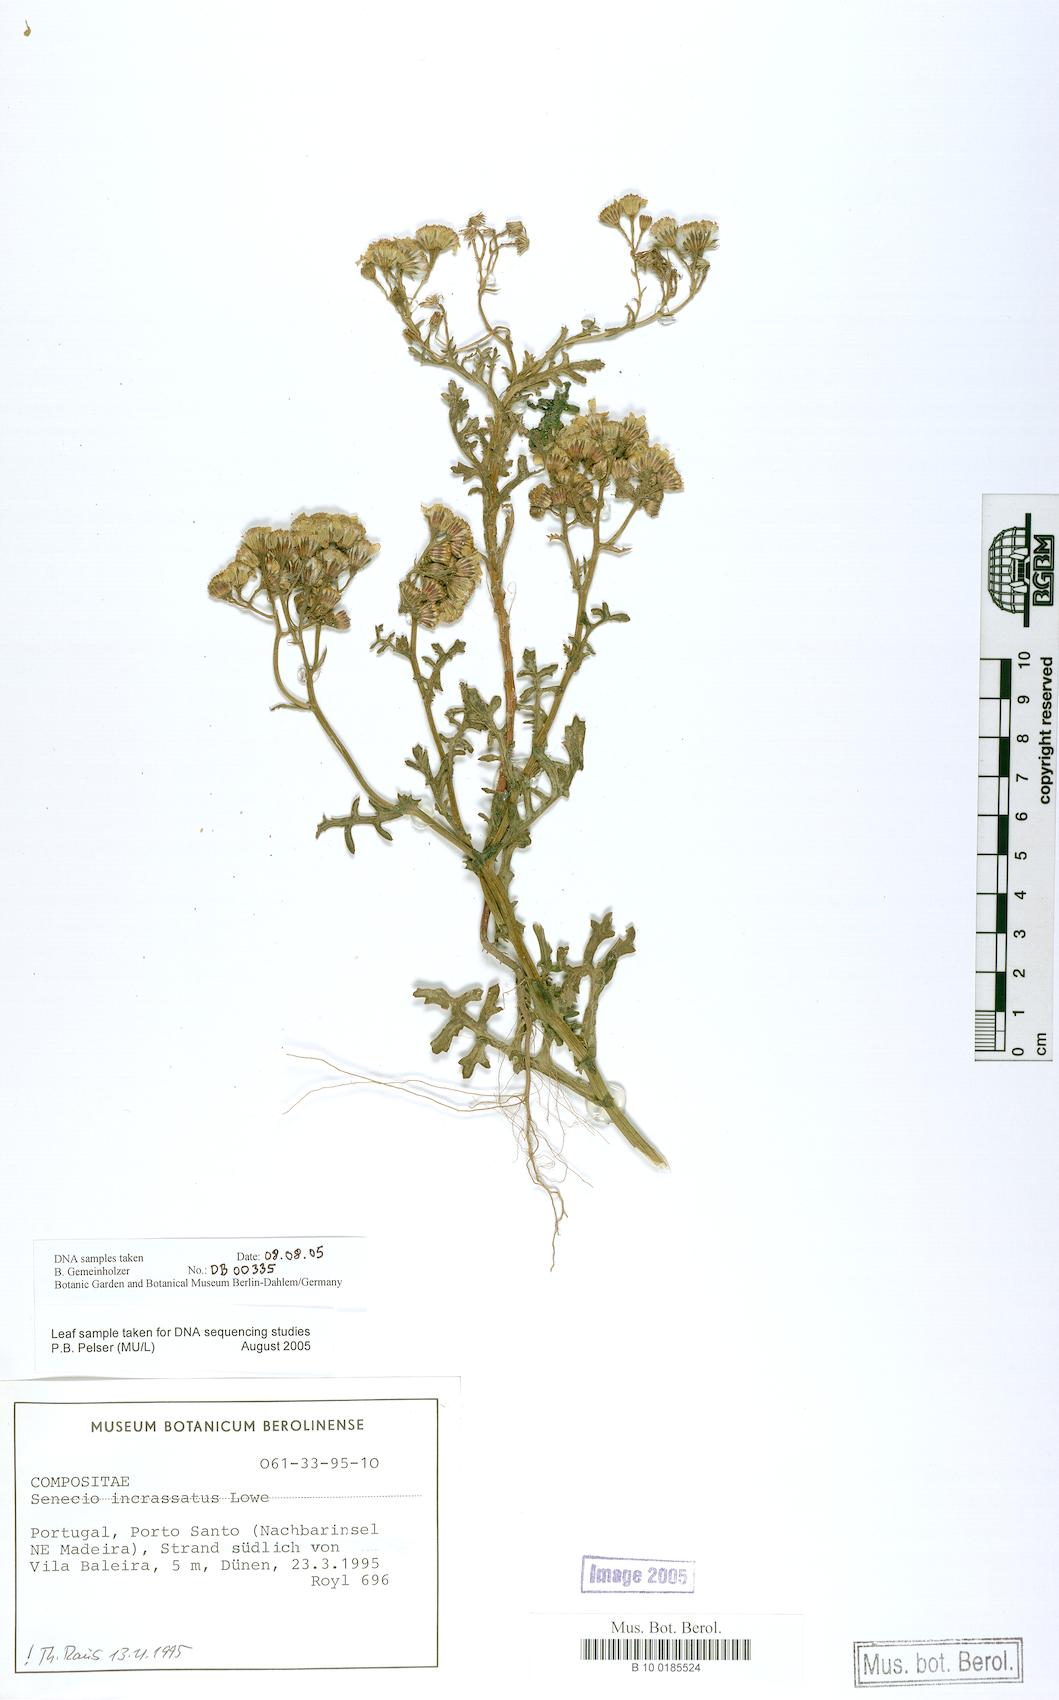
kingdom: Plantae
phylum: Tracheophyta
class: Magnoliopsida
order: Asterales
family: Asteraceae
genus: Senecio
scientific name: Senecio incrassatus
